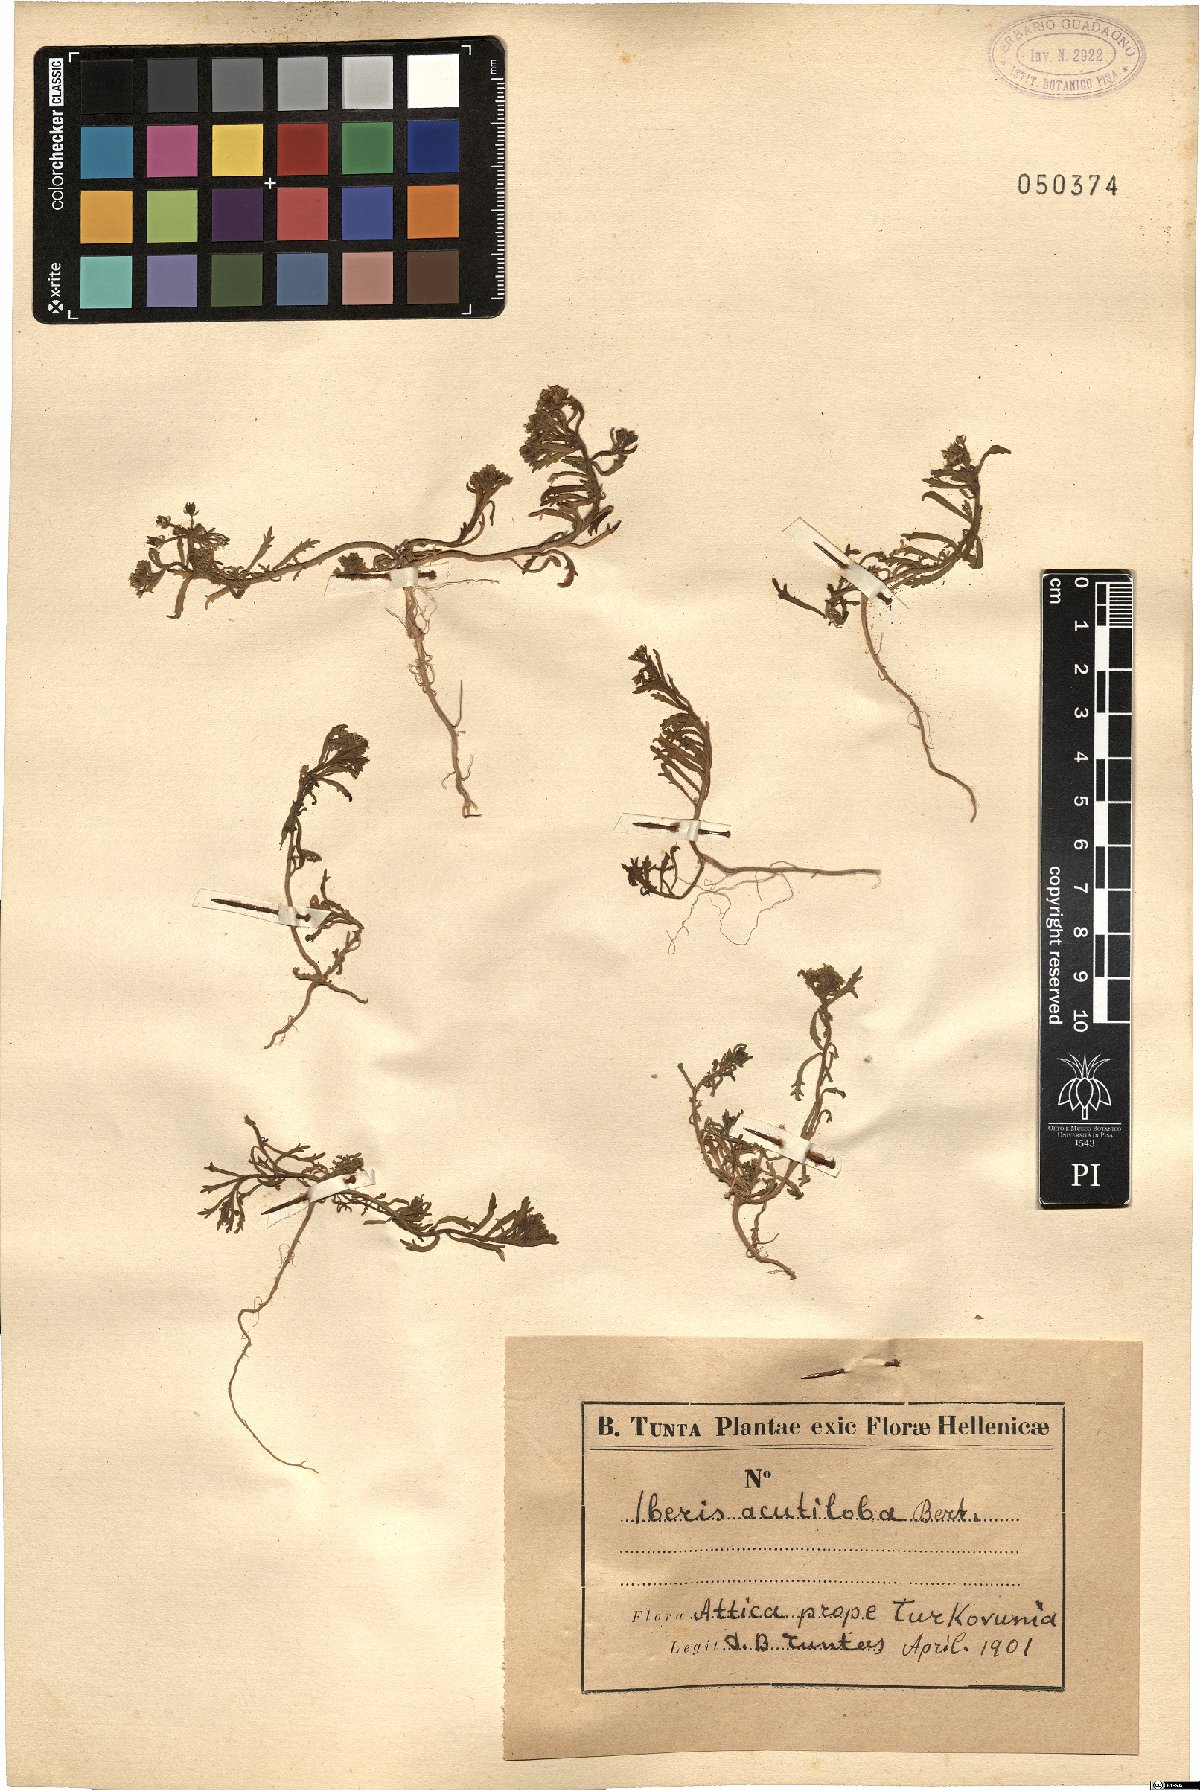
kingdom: Plantae
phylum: Tracheophyta
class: Magnoliopsida
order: Brassicales
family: Brassicaceae
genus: Iberis
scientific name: Iberis odorata
